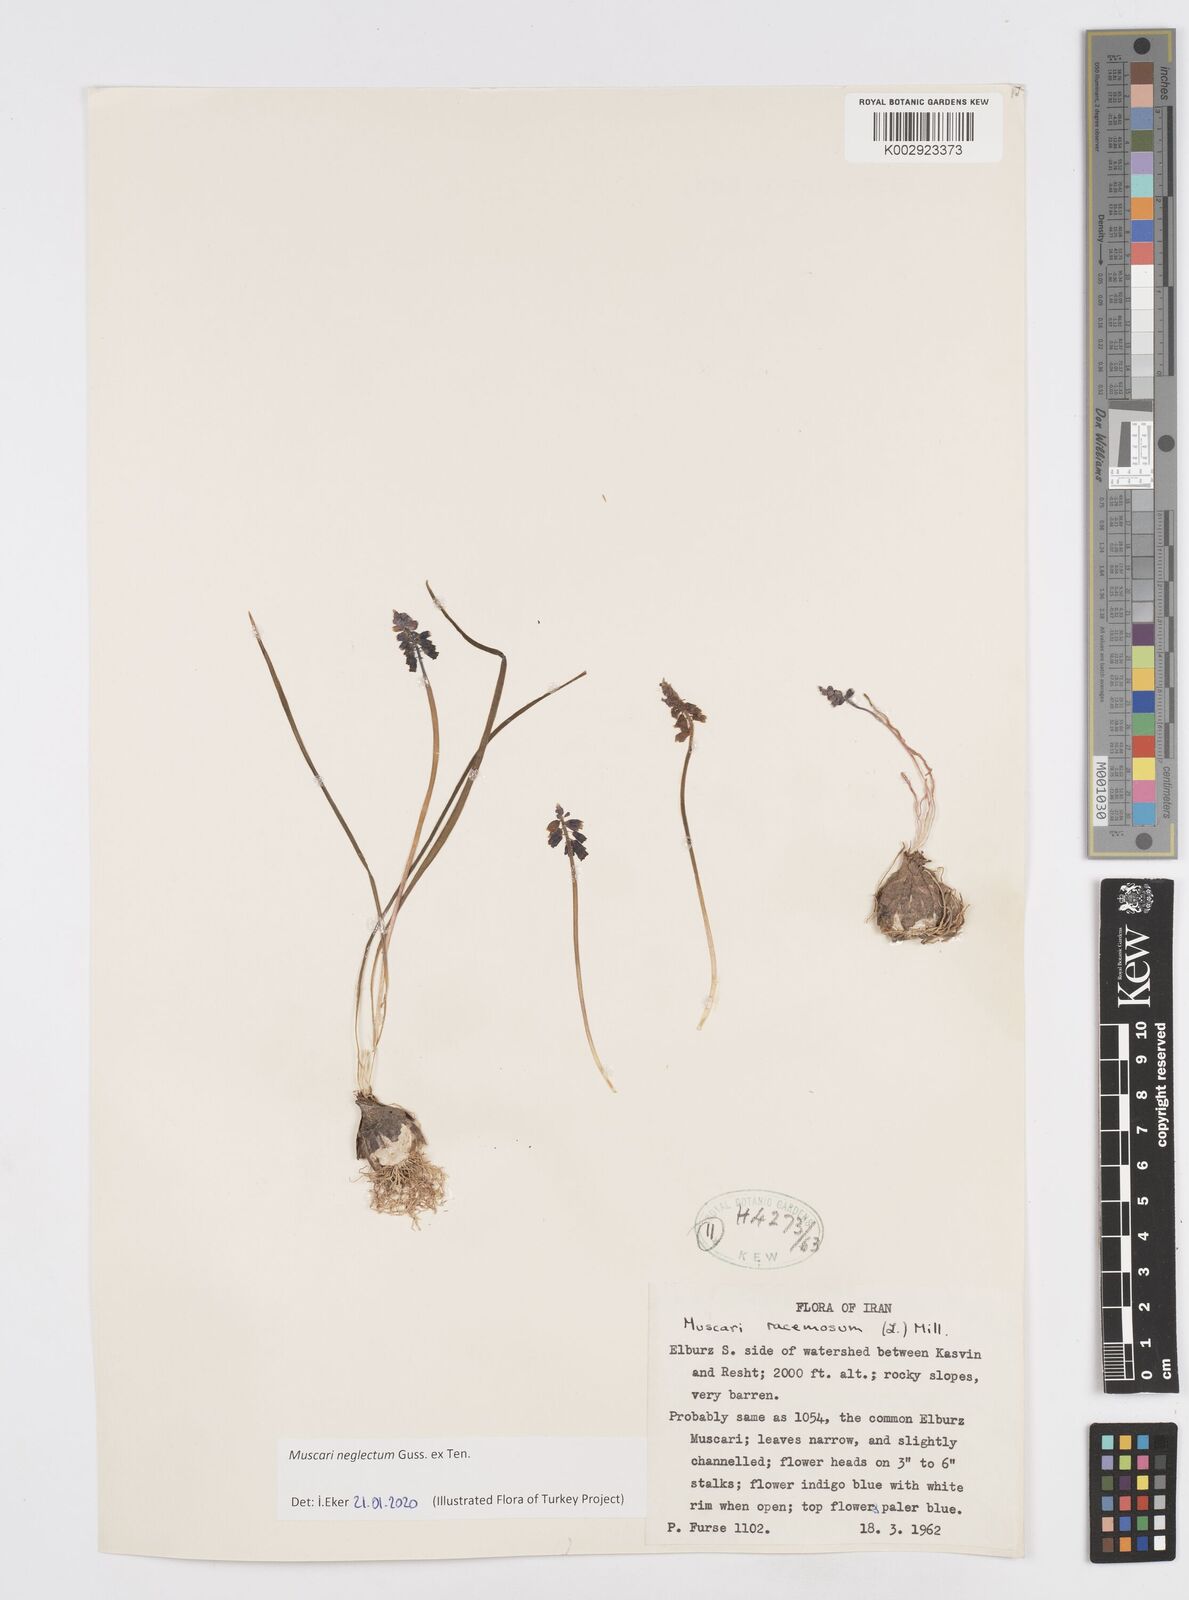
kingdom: Plantae
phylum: Tracheophyta
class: Liliopsida
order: Asparagales
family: Asparagaceae
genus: Muscari
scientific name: Muscari neglectum
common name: Grape-hyacinth
